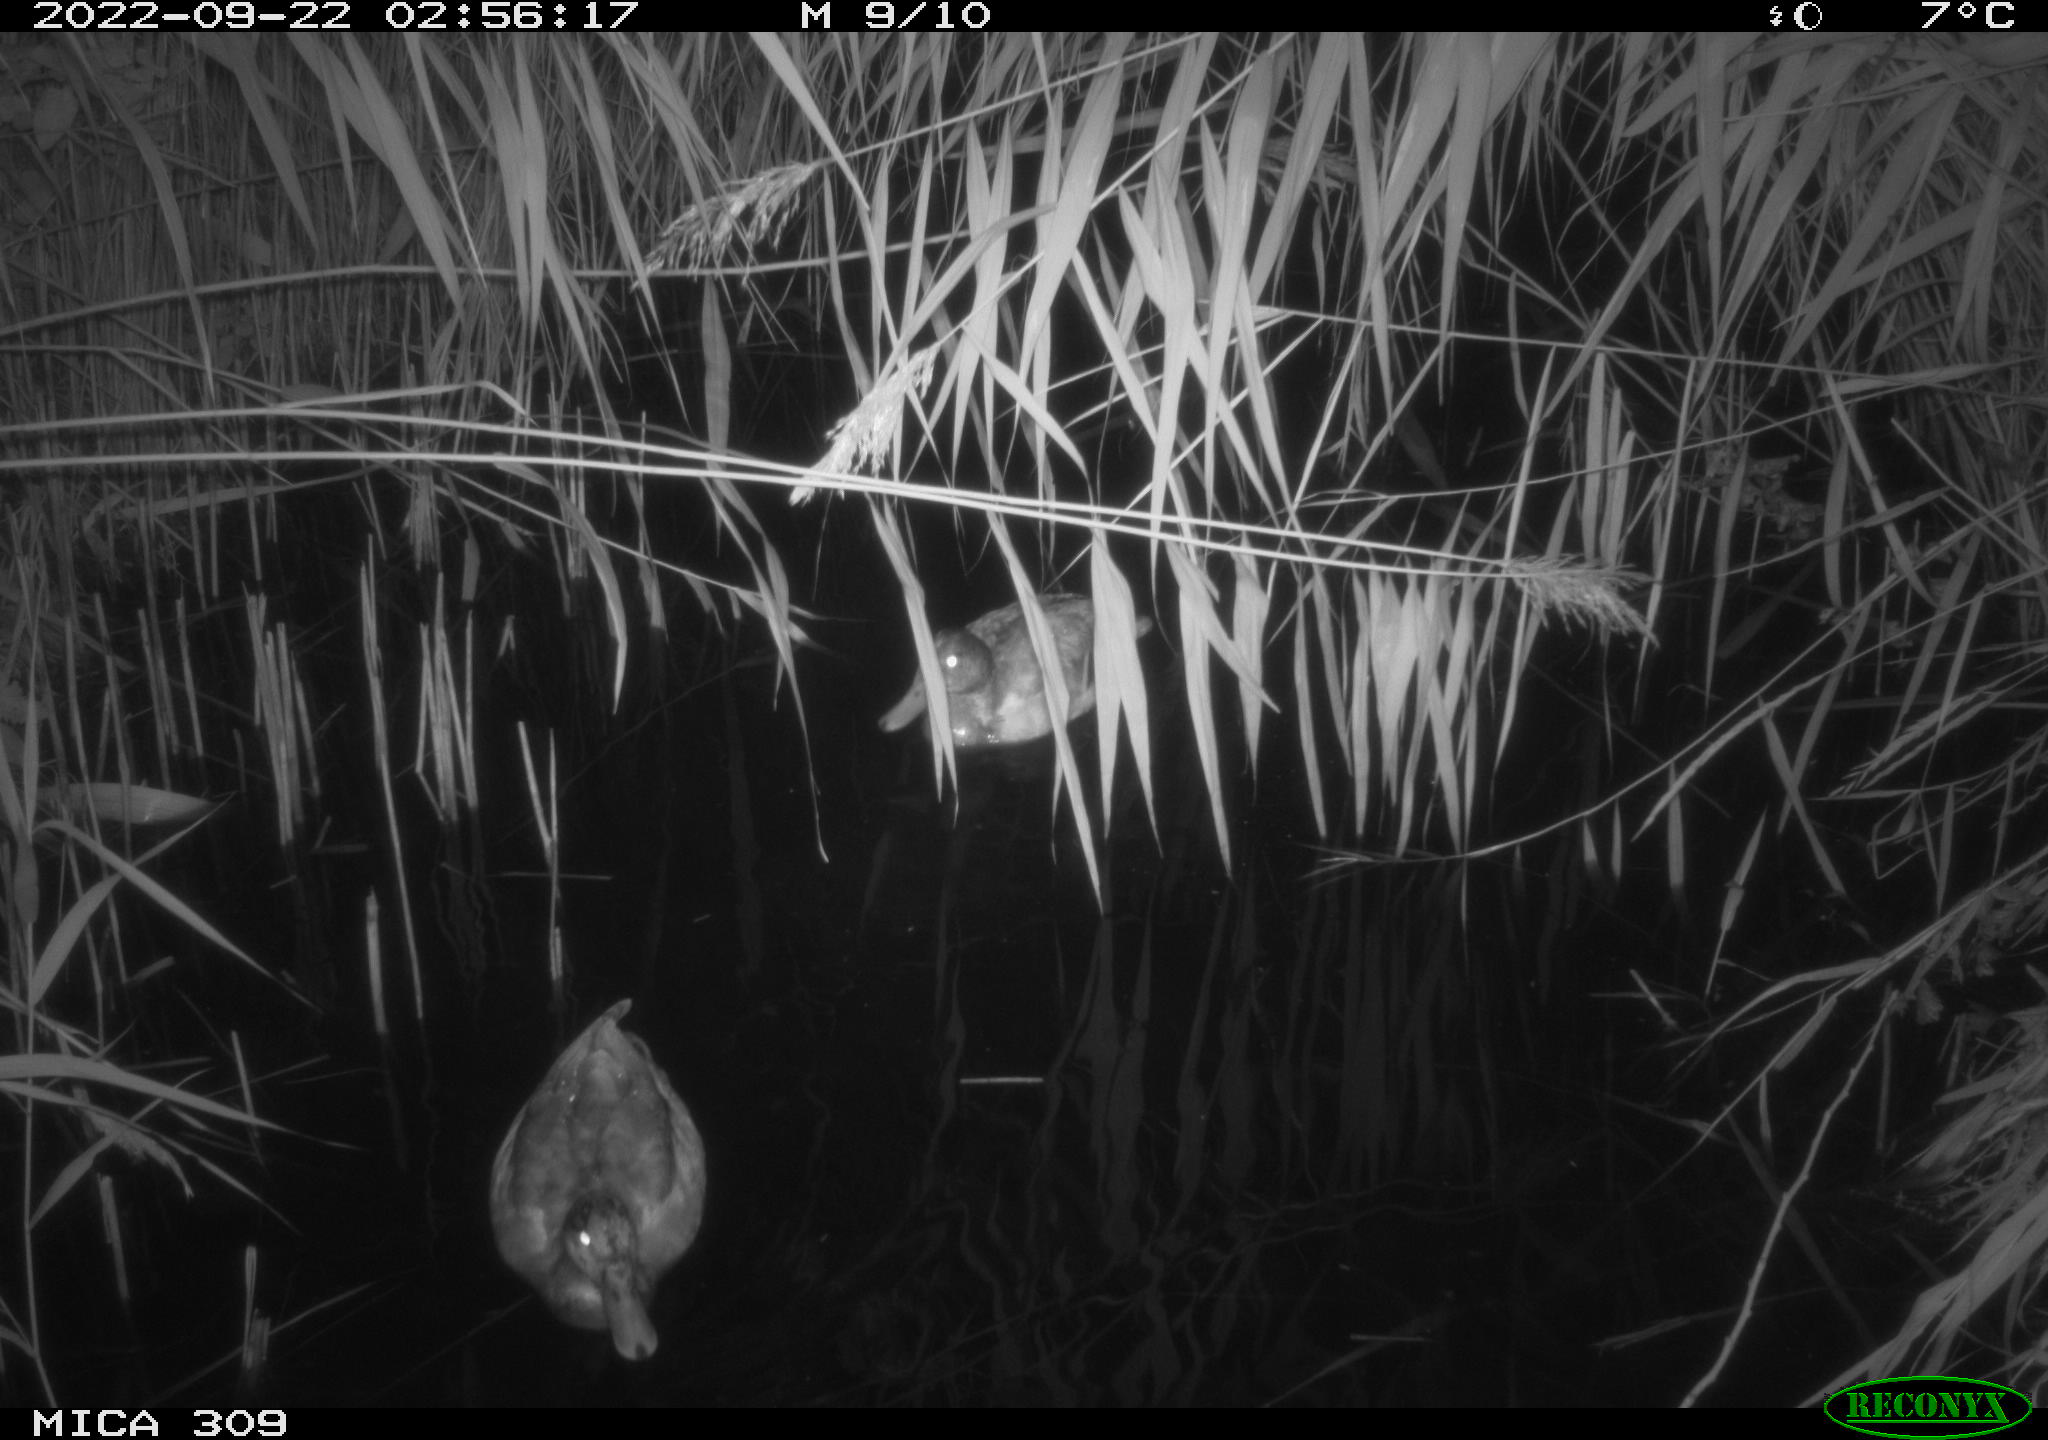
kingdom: Animalia
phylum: Chordata
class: Aves
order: Anseriformes
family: Anatidae
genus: Anas
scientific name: Anas
